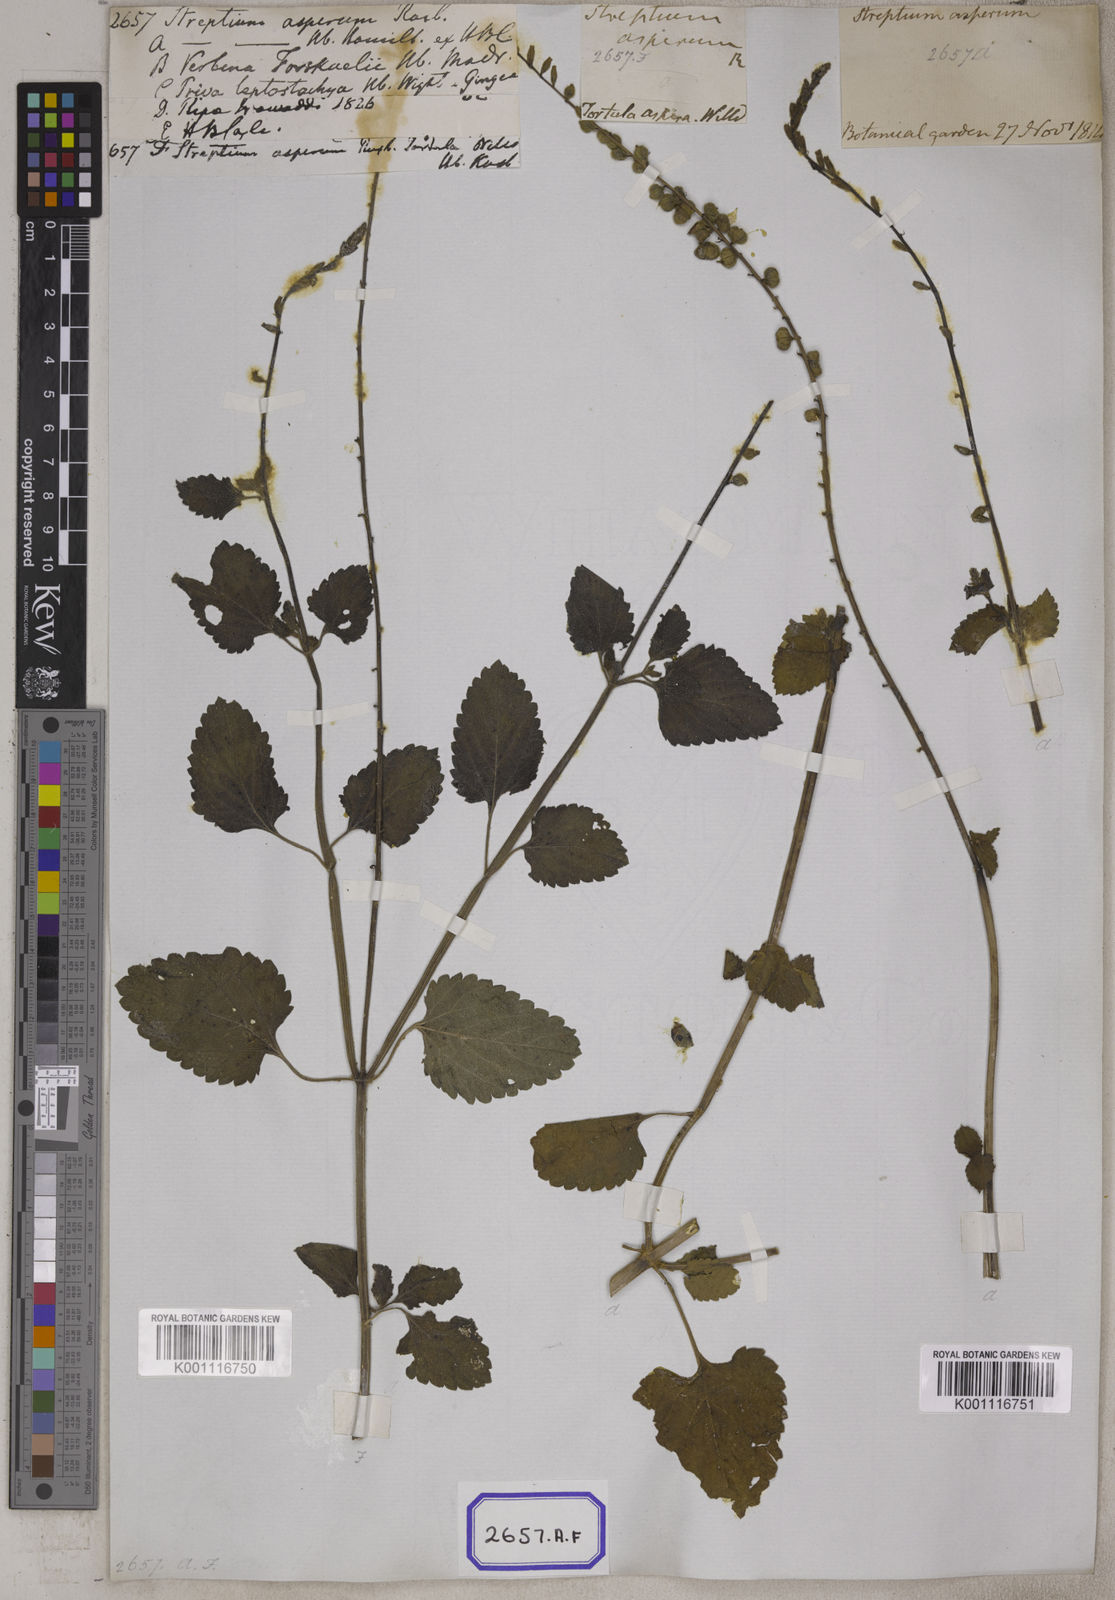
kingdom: Plantae
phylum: Tracheophyta
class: Magnoliopsida
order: Lamiales
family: Verbenaceae
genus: Priva
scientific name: Priva cordifolia
